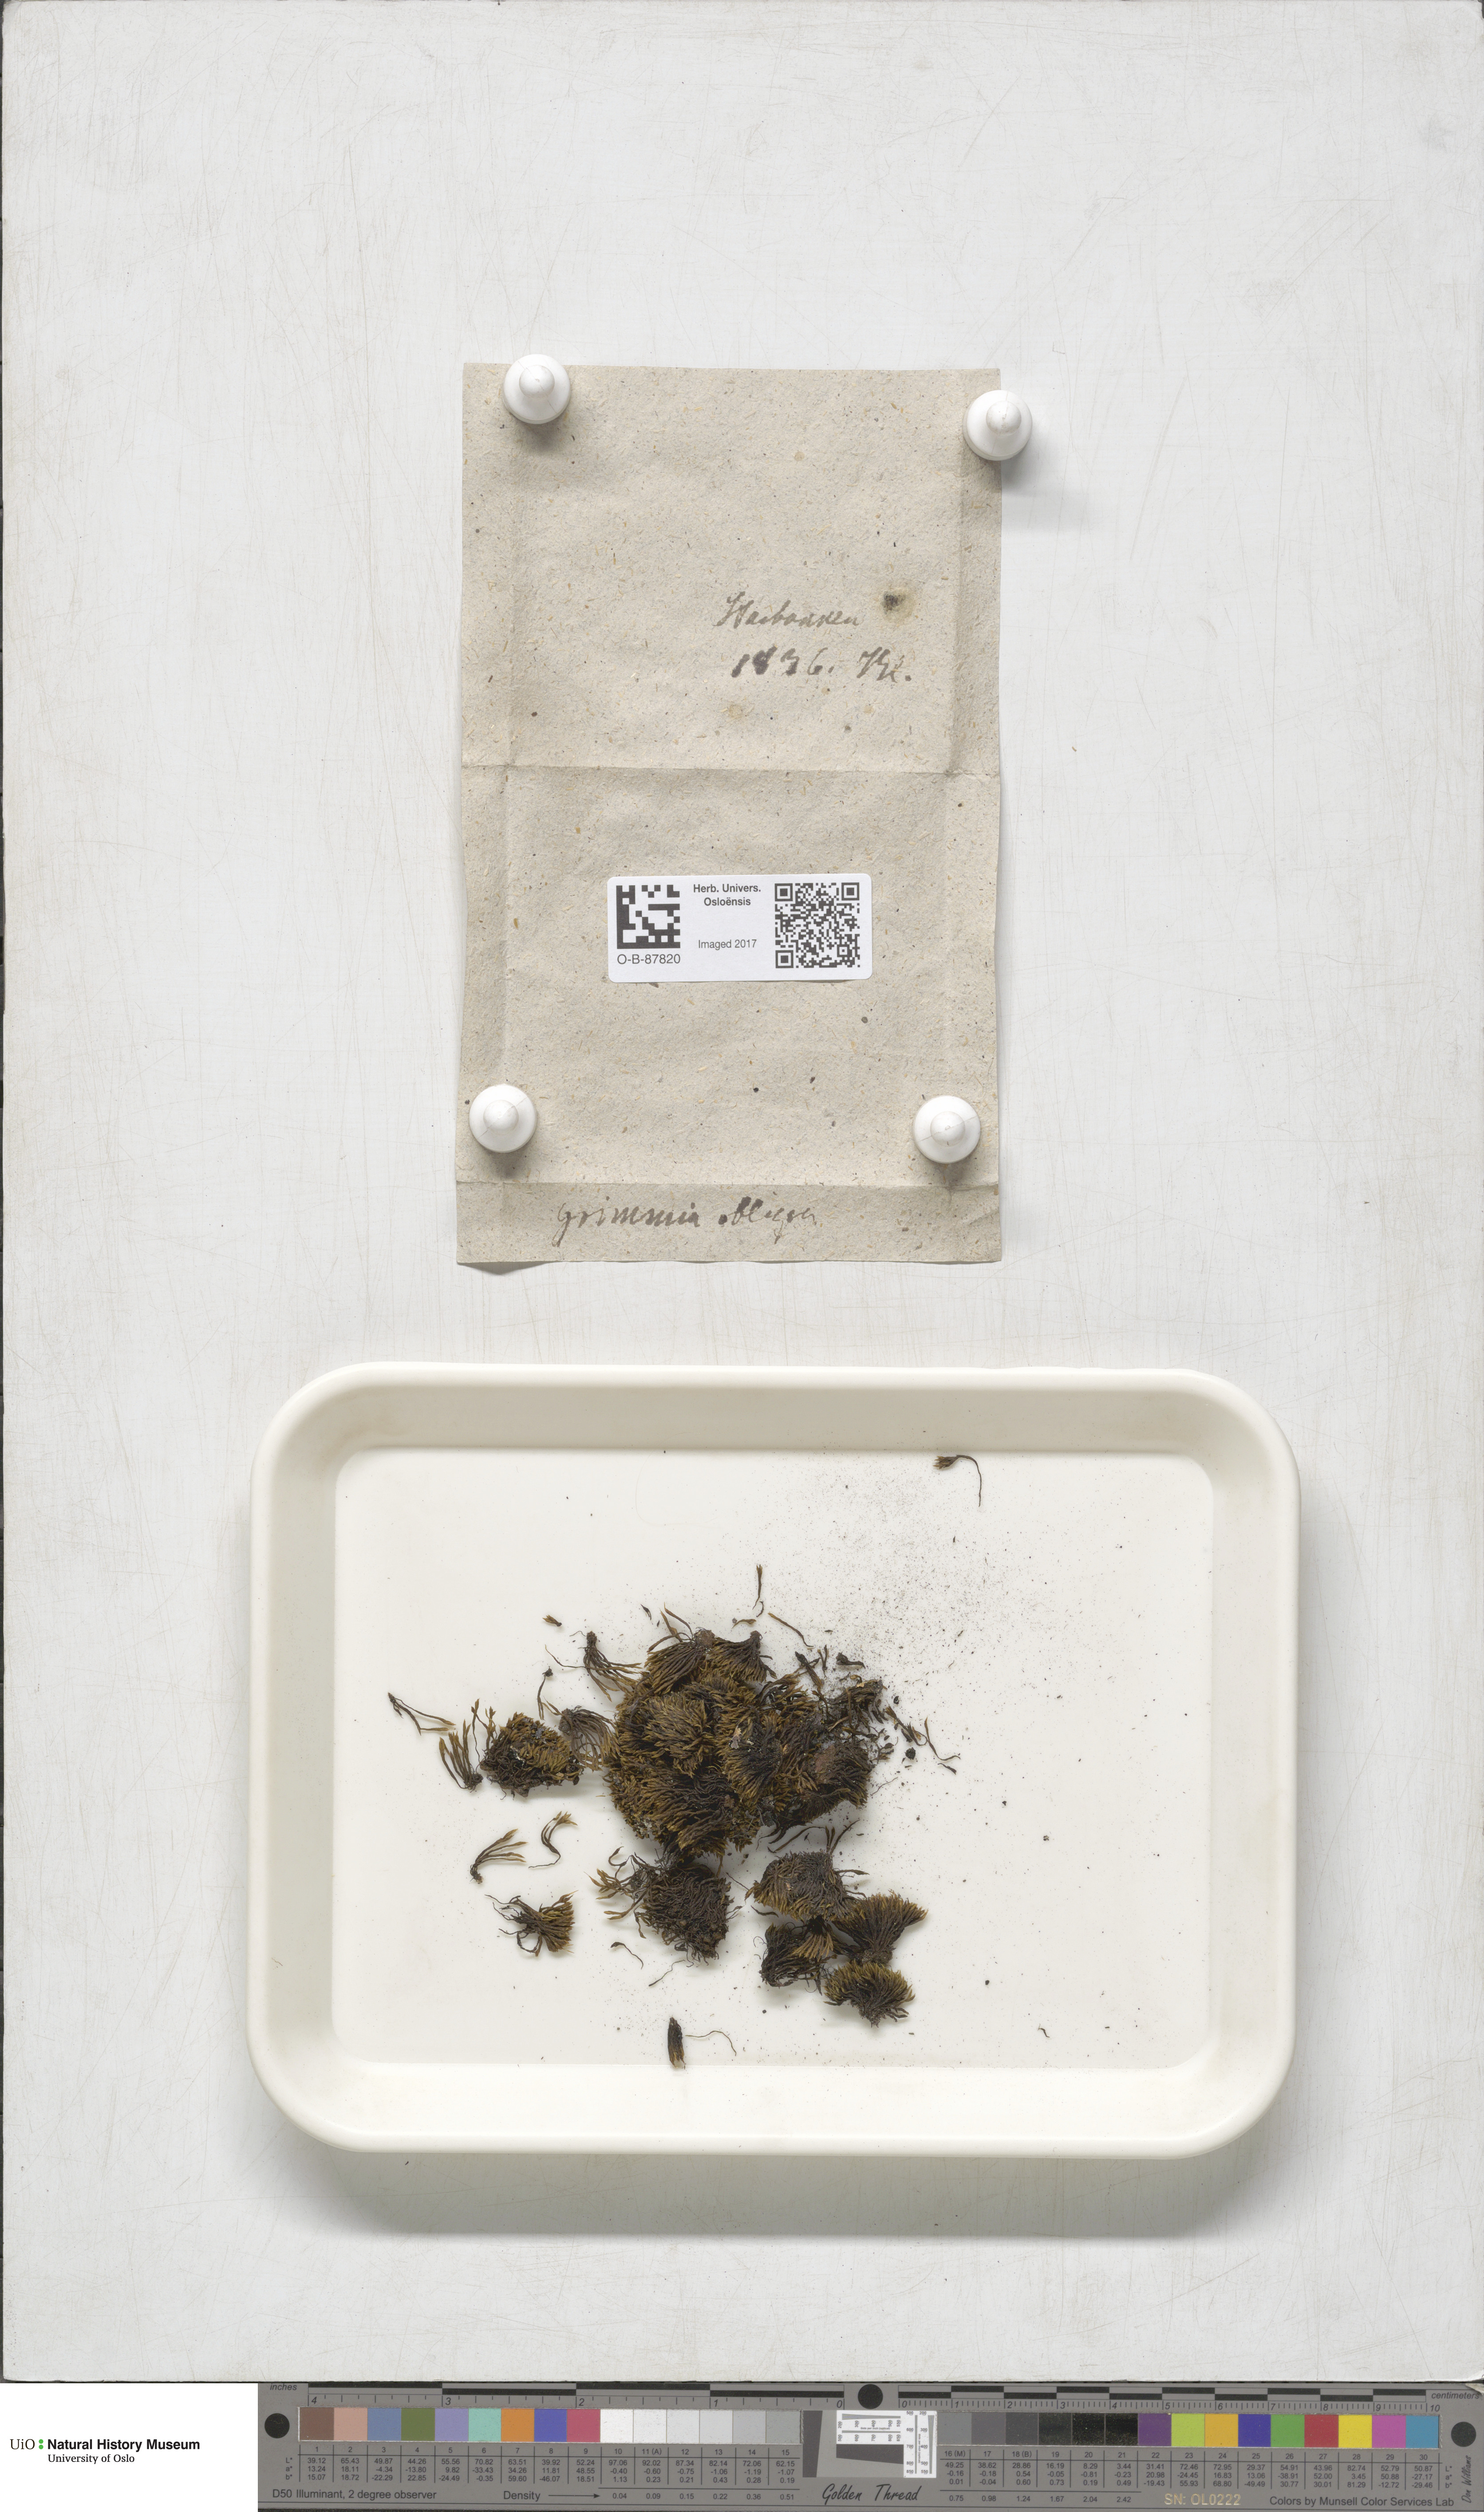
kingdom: Plantae
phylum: Bryophyta
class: Bryopsida
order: Grimmiales
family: Grimmiaceae
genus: Grimmia
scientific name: Grimmia ovalis
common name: Oval grimmia
